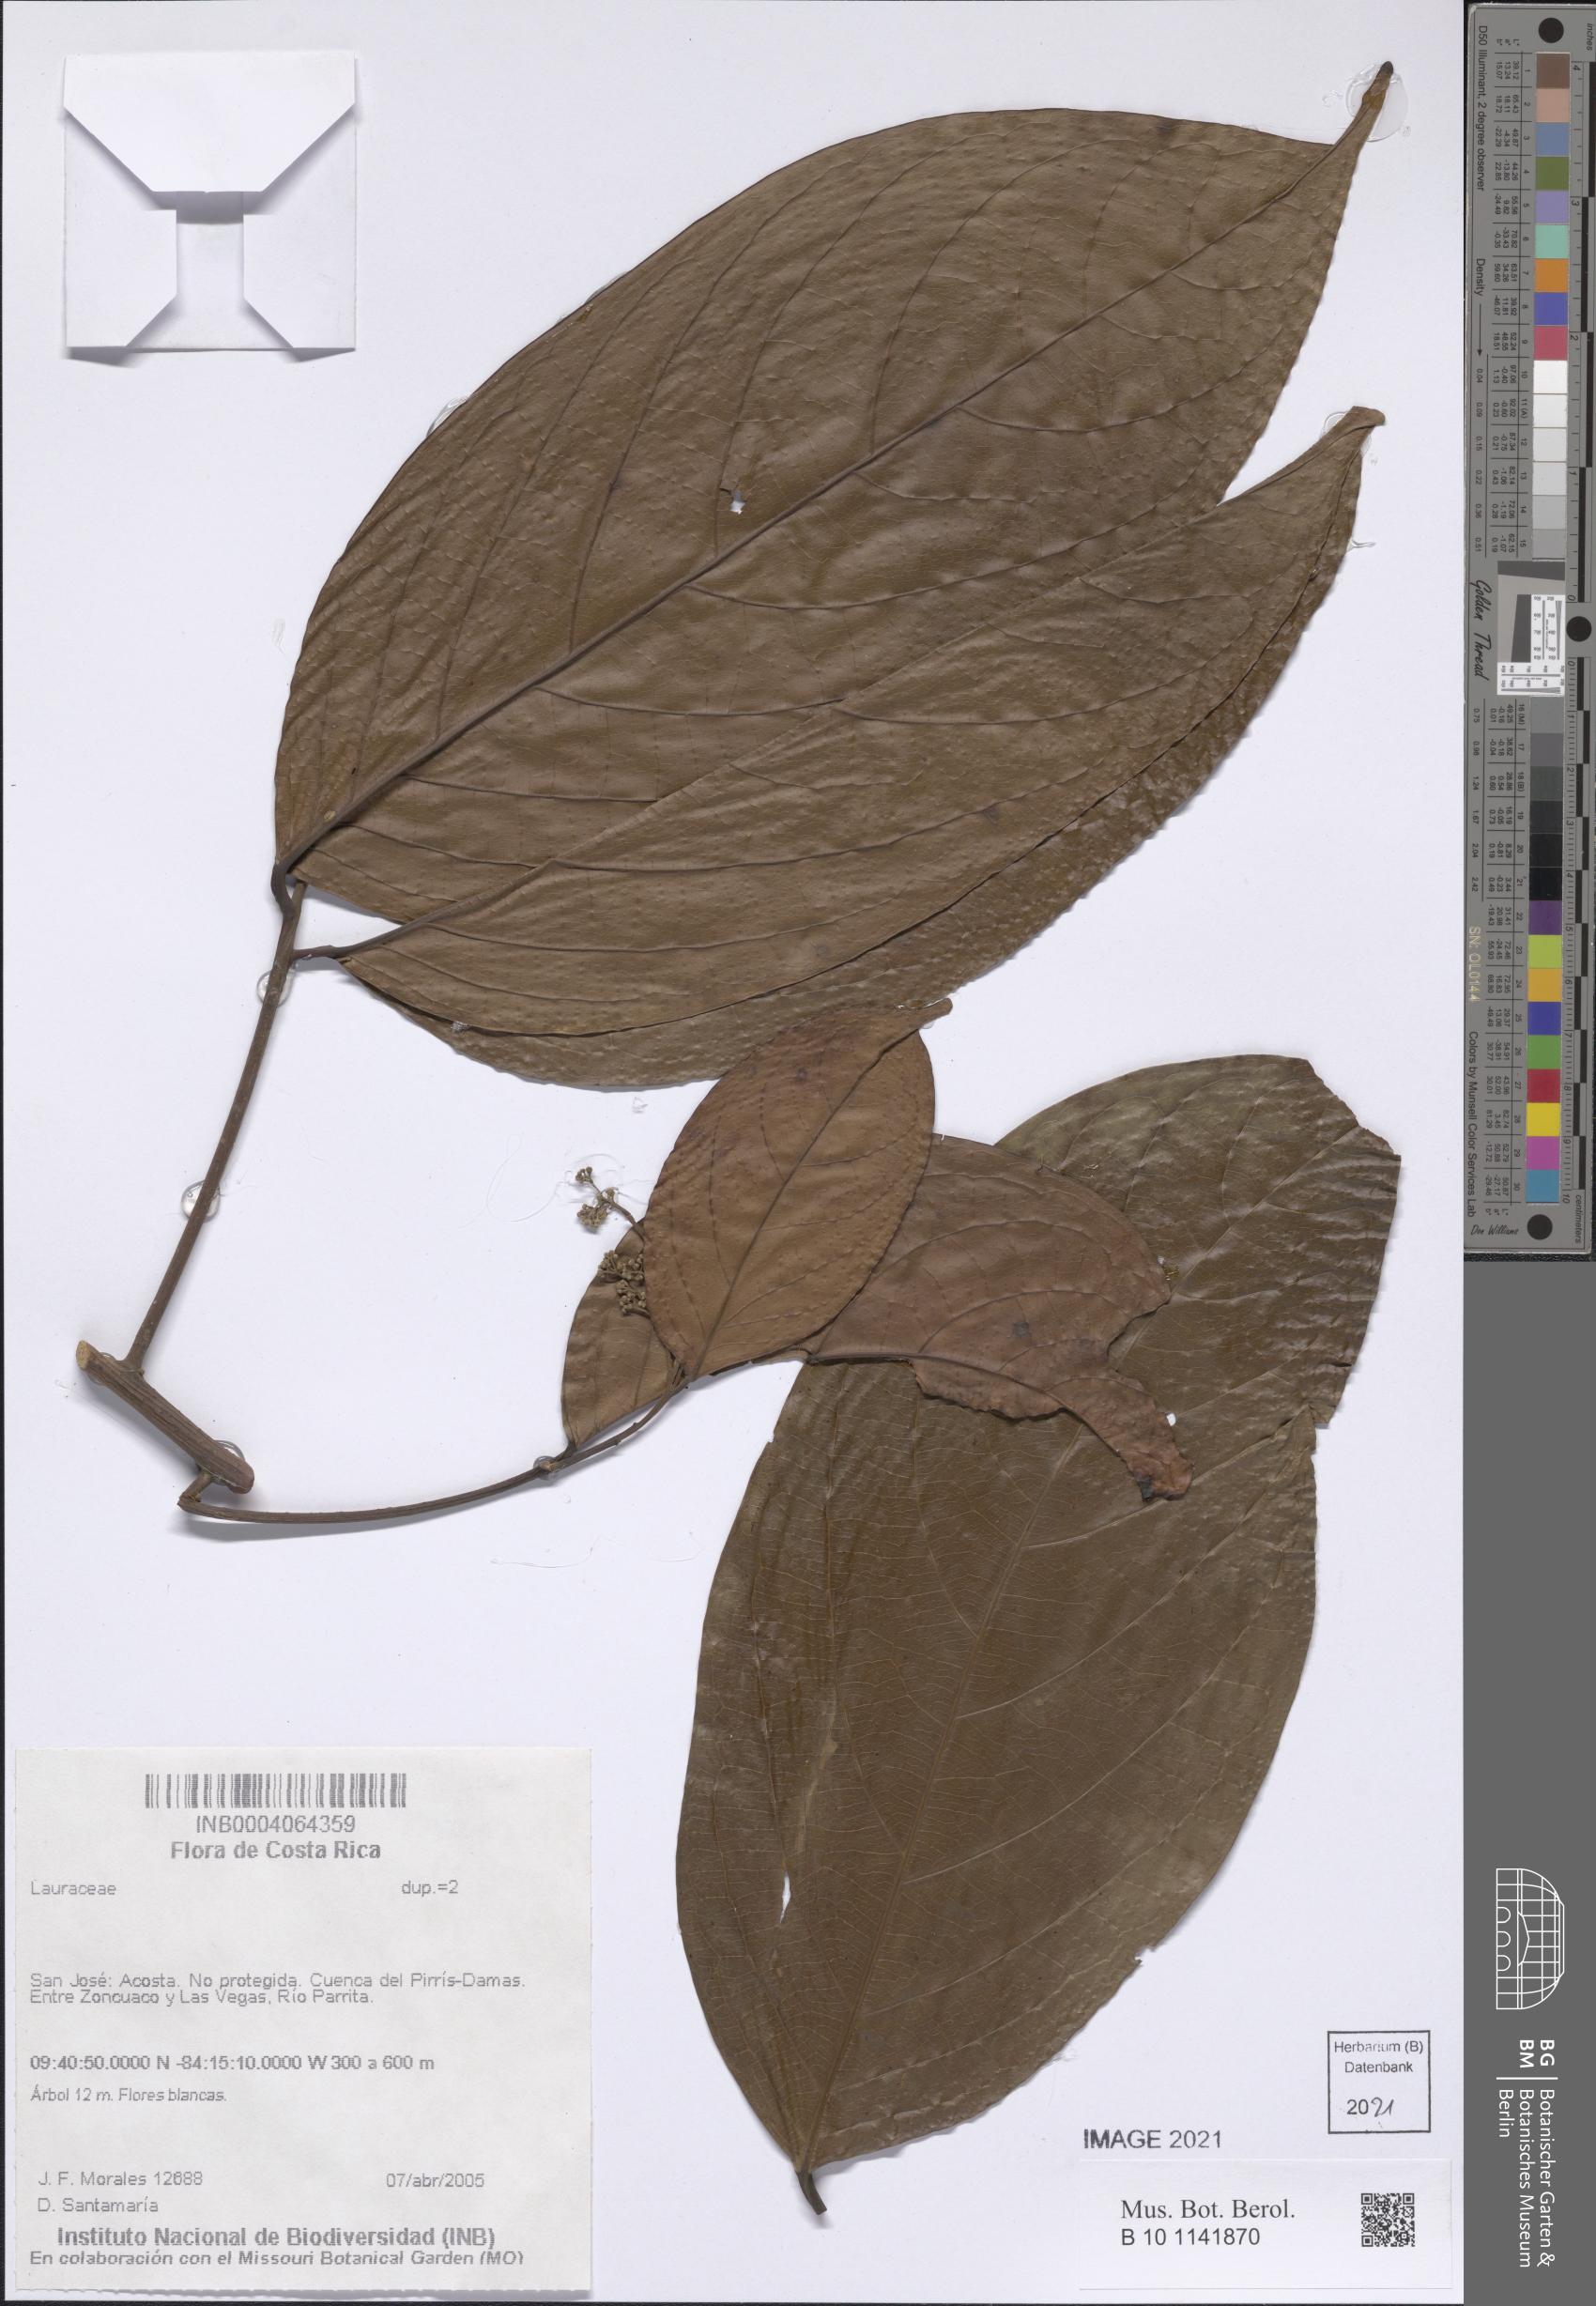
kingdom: Plantae
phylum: Tracheophyta
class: Magnoliopsida
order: Laurales
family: Lauraceae
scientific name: Lauraceae
